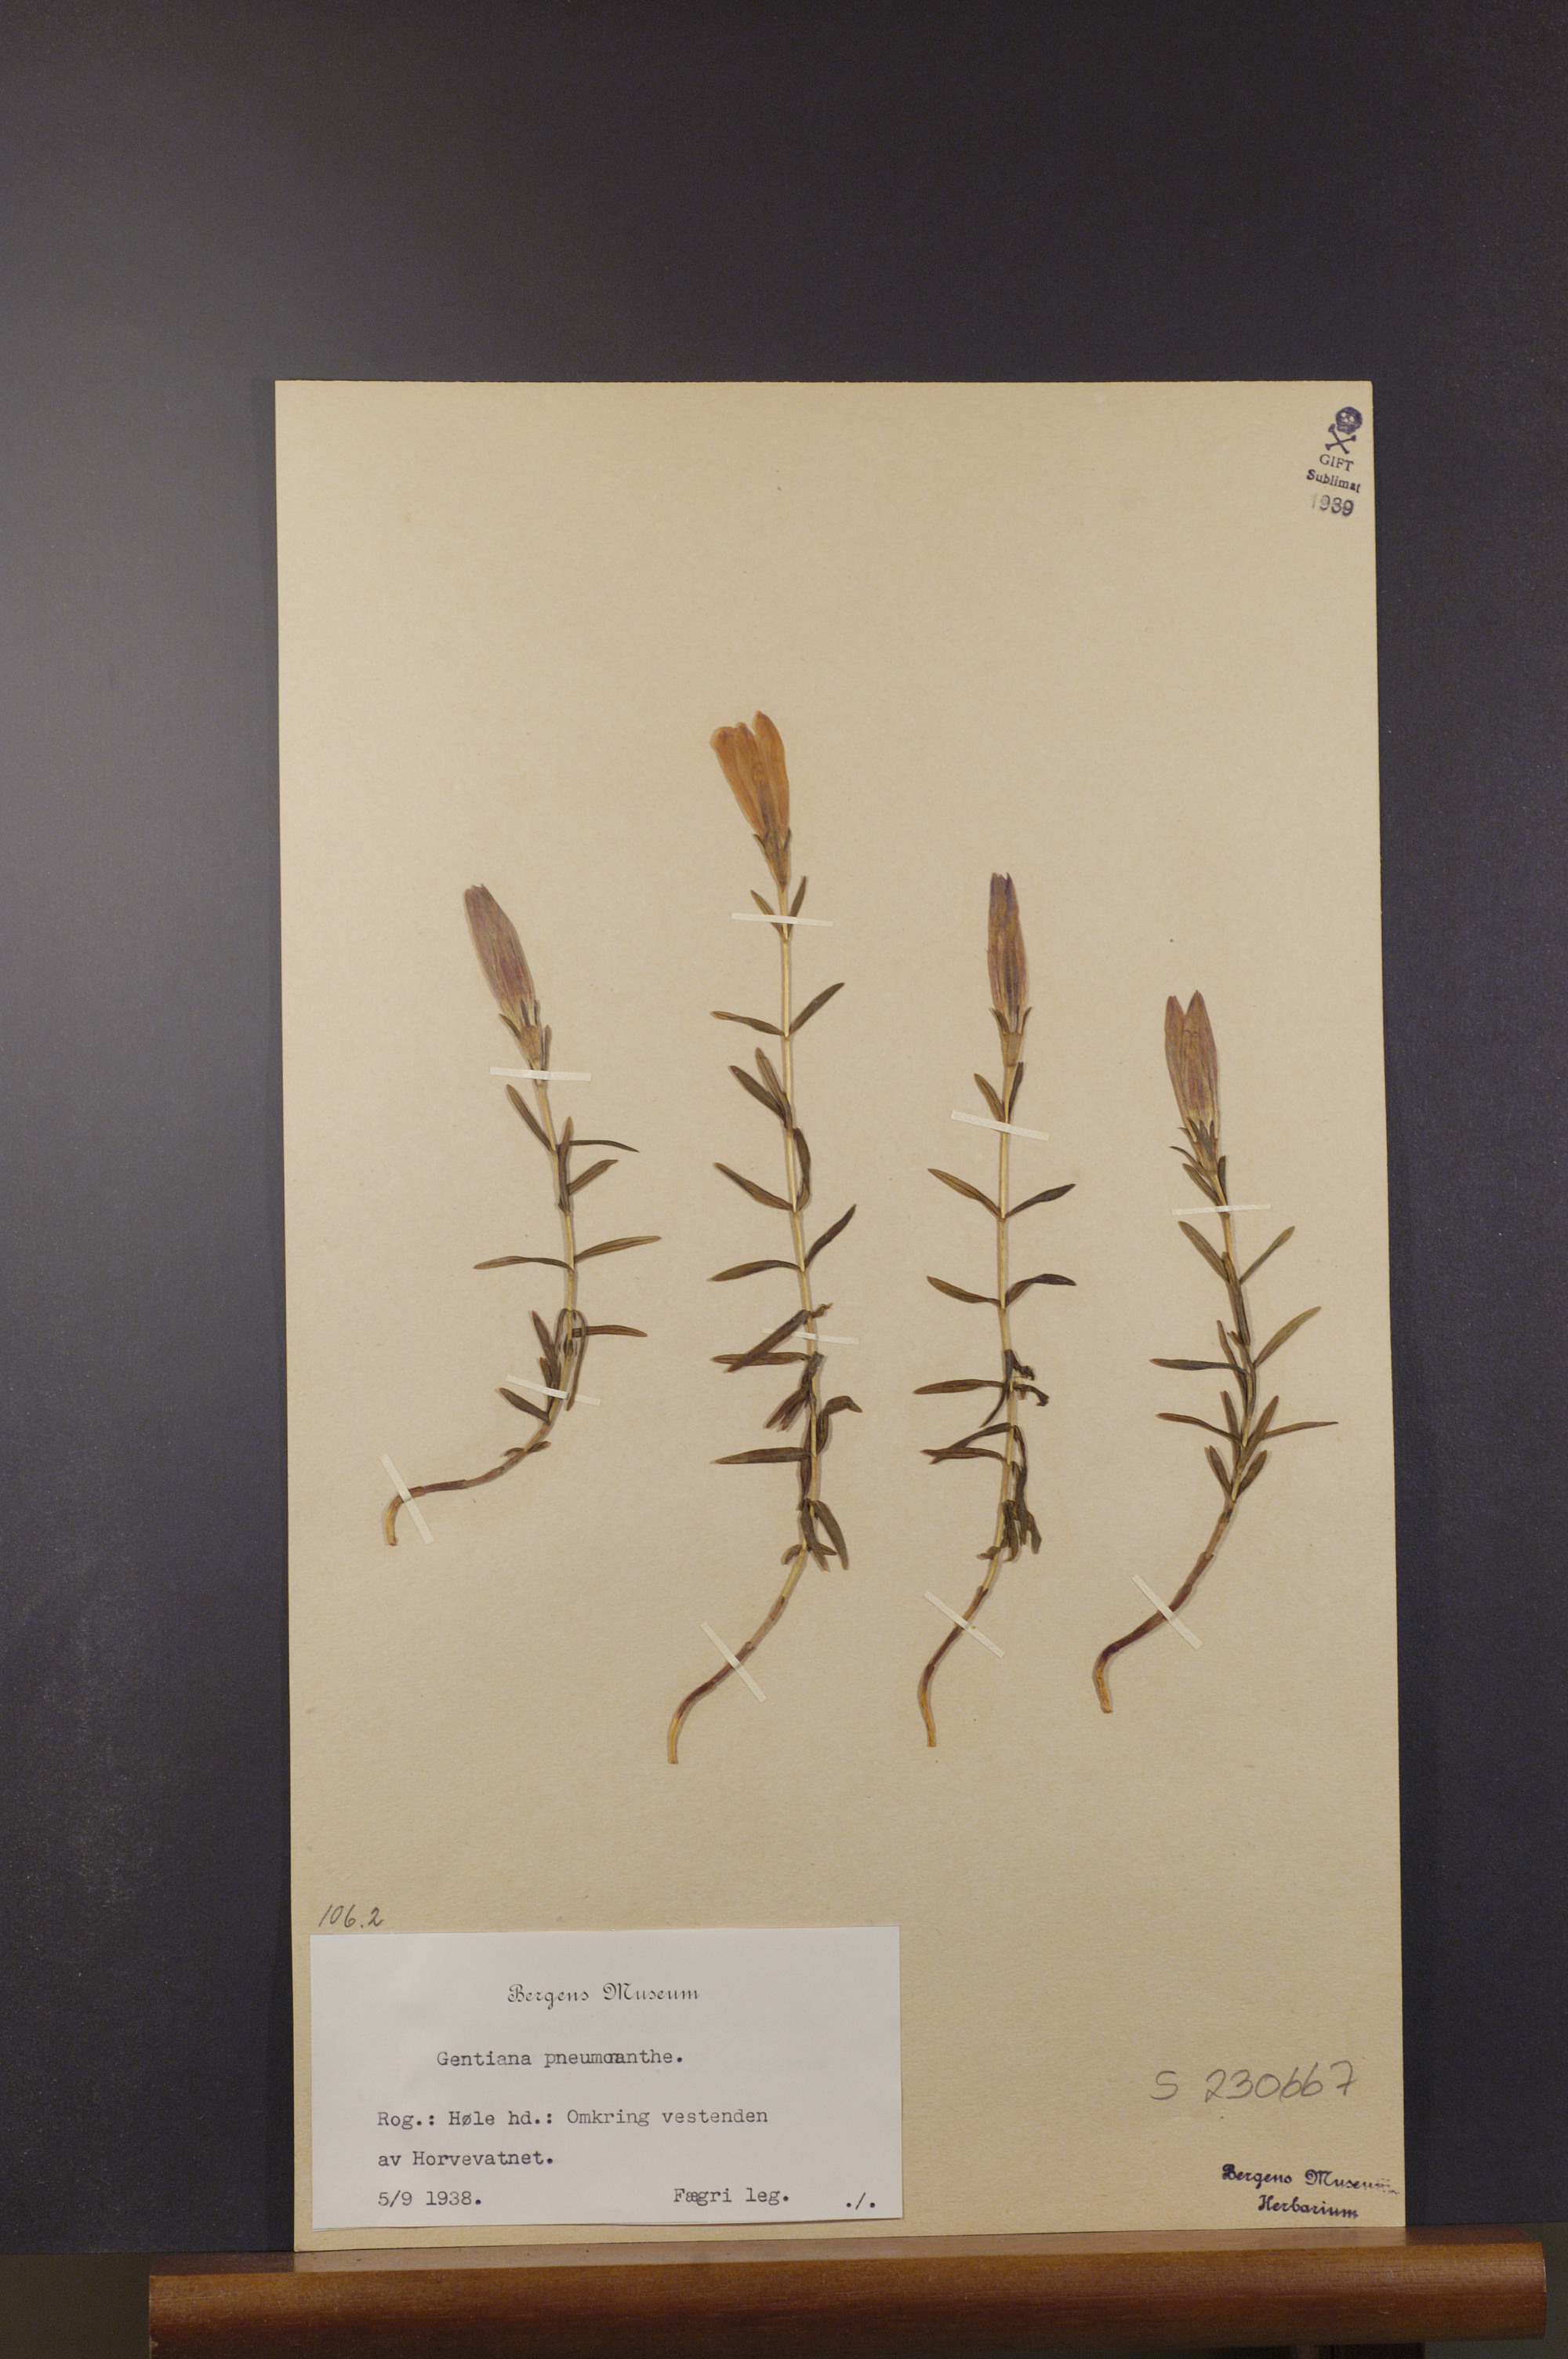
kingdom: Plantae
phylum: Tracheophyta
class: Magnoliopsida
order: Gentianales
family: Gentianaceae
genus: Gentiana
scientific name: Gentiana pneumonanthe
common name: Marsh gentian
